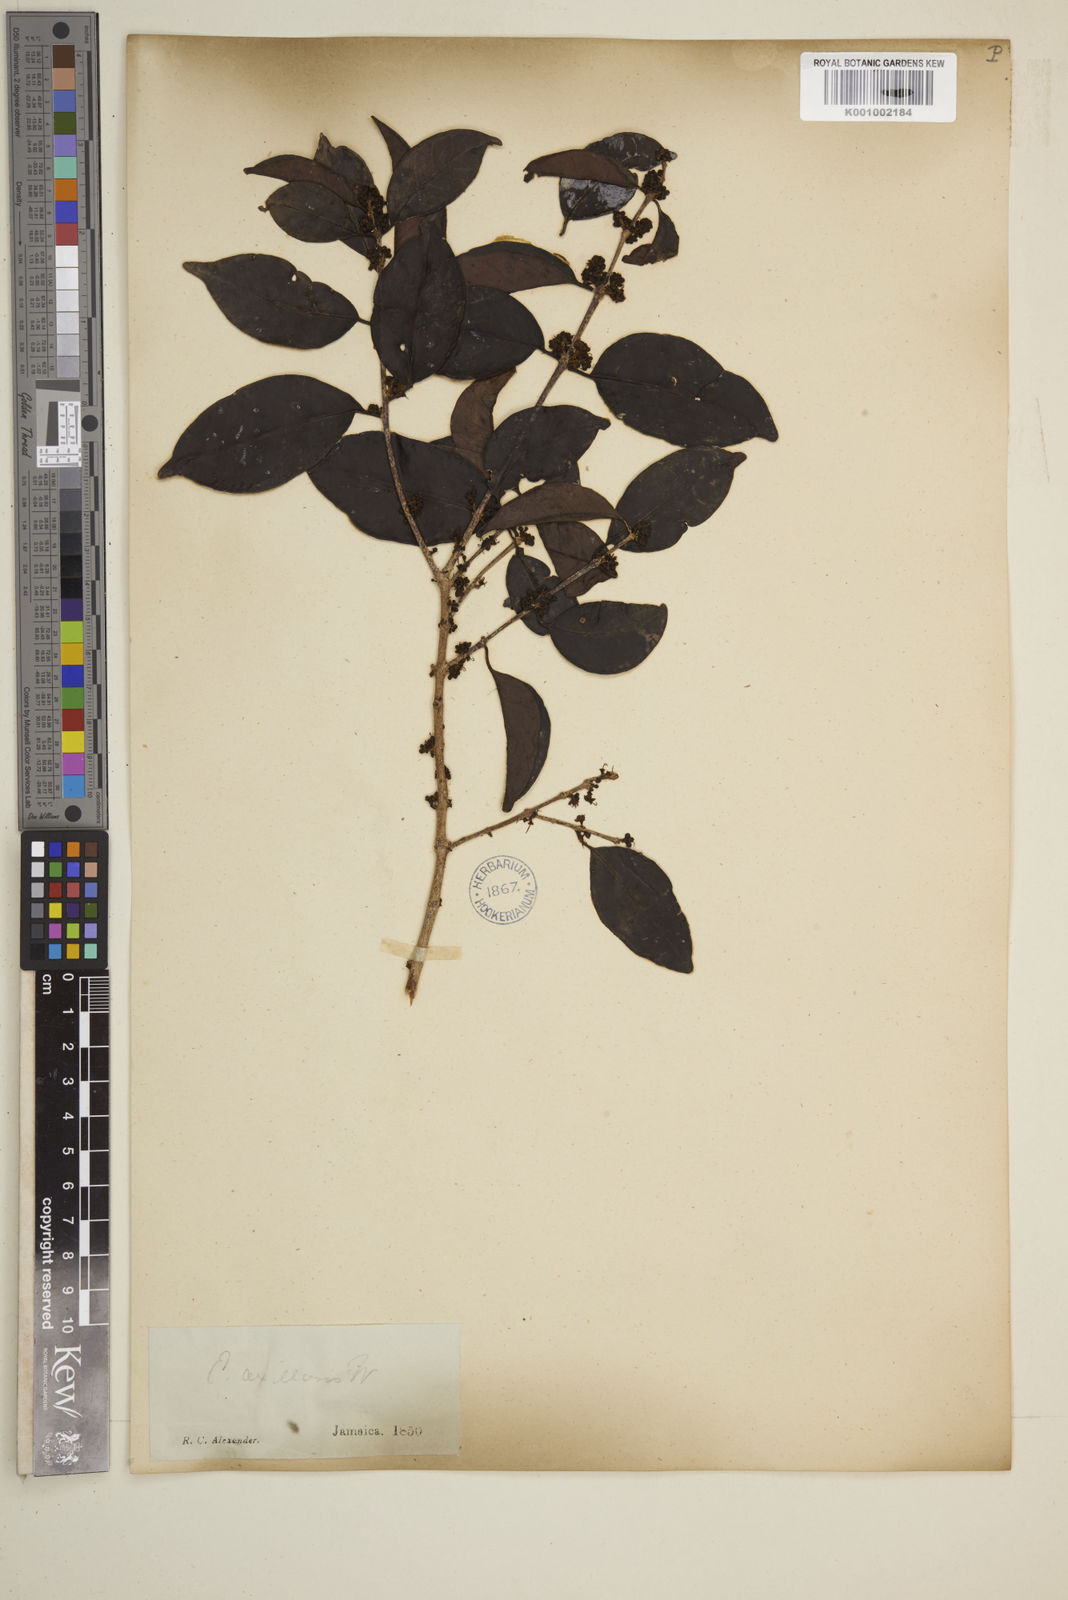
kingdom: Plantae
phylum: Tracheophyta
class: Magnoliopsida
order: Myrtales
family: Myrtaceae
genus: Eugenia
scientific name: Eugenia axillaris
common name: Choaky berry
